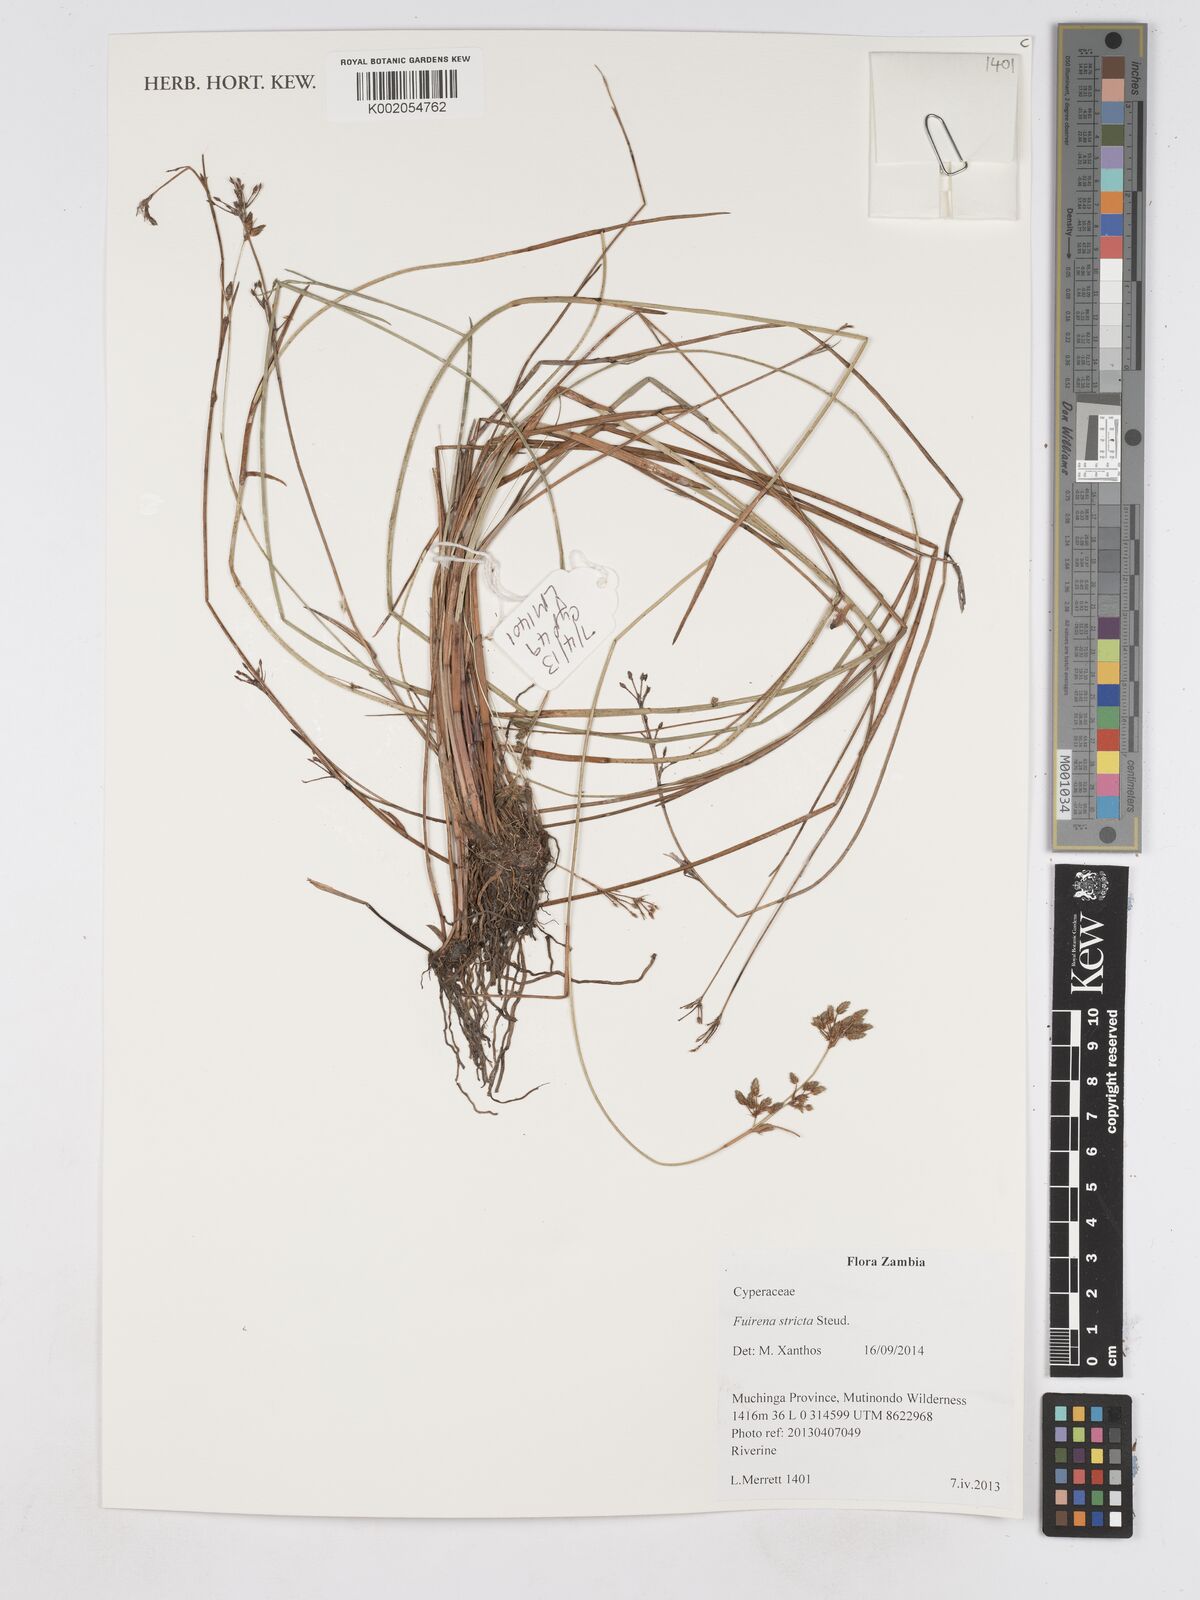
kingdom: Plantae
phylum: Tracheophyta
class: Liliopsida
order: Poales
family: Cyperaceae
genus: Fuirena
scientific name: Fuirena stricta
